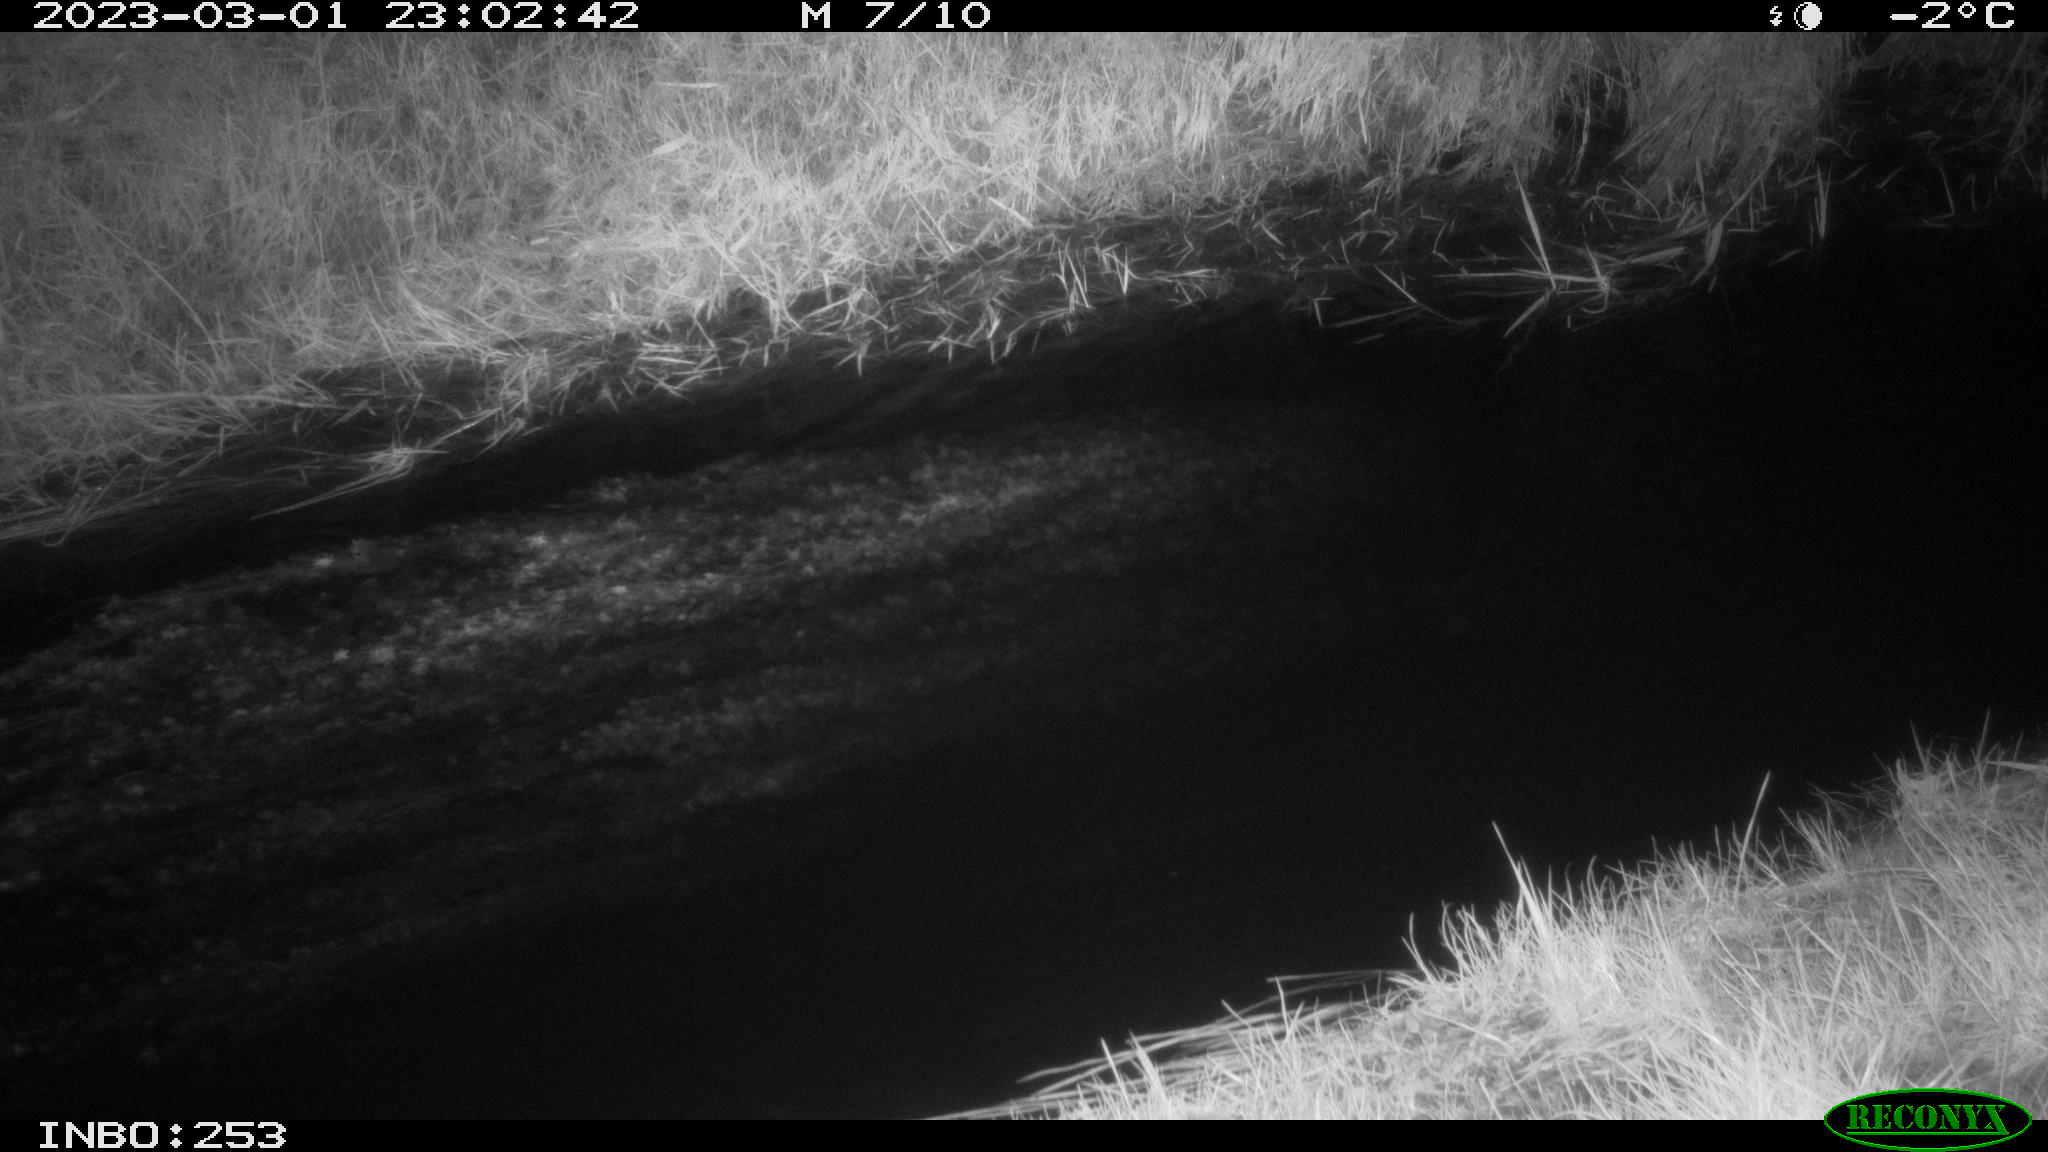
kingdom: Animalia
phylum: Chordata
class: Aves
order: Anseriformes
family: Anatidae
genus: Anas
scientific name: Anas
